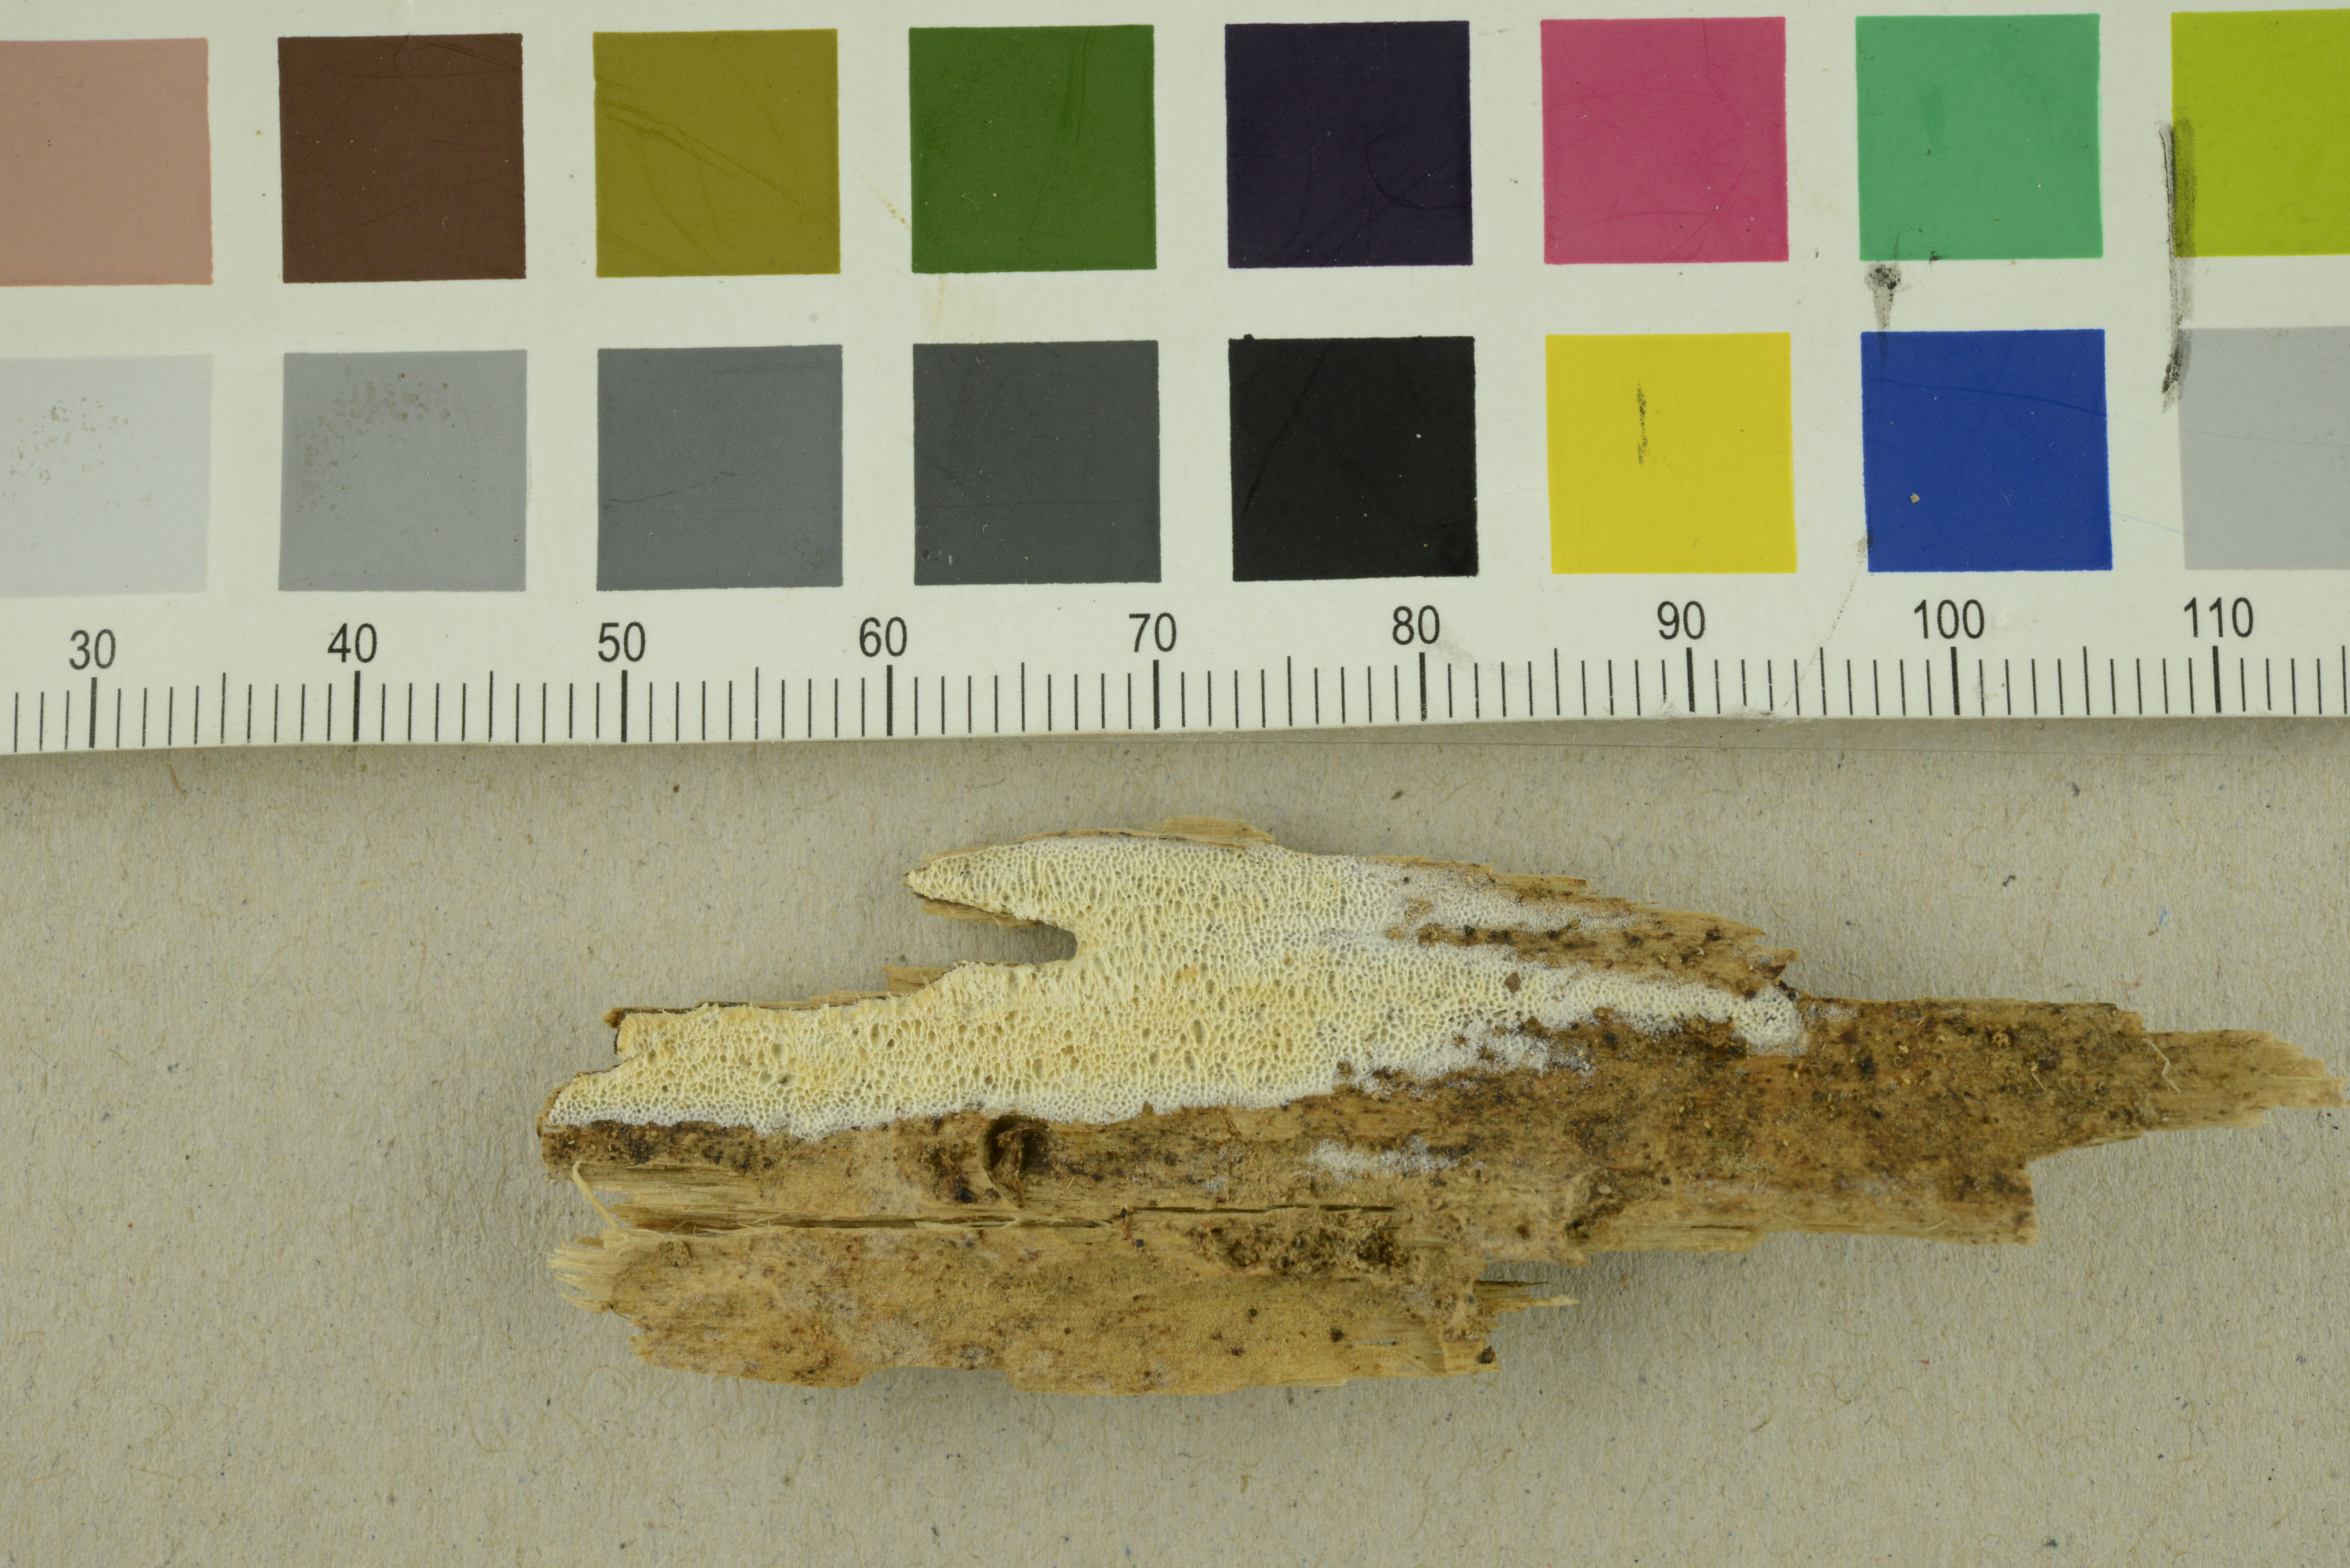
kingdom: Fungi
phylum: Basidiomycota
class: Agaricomycetes
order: Polyporales
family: Incrustoporiaceae
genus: Skeletocutis
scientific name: Skeletocutis delicata
